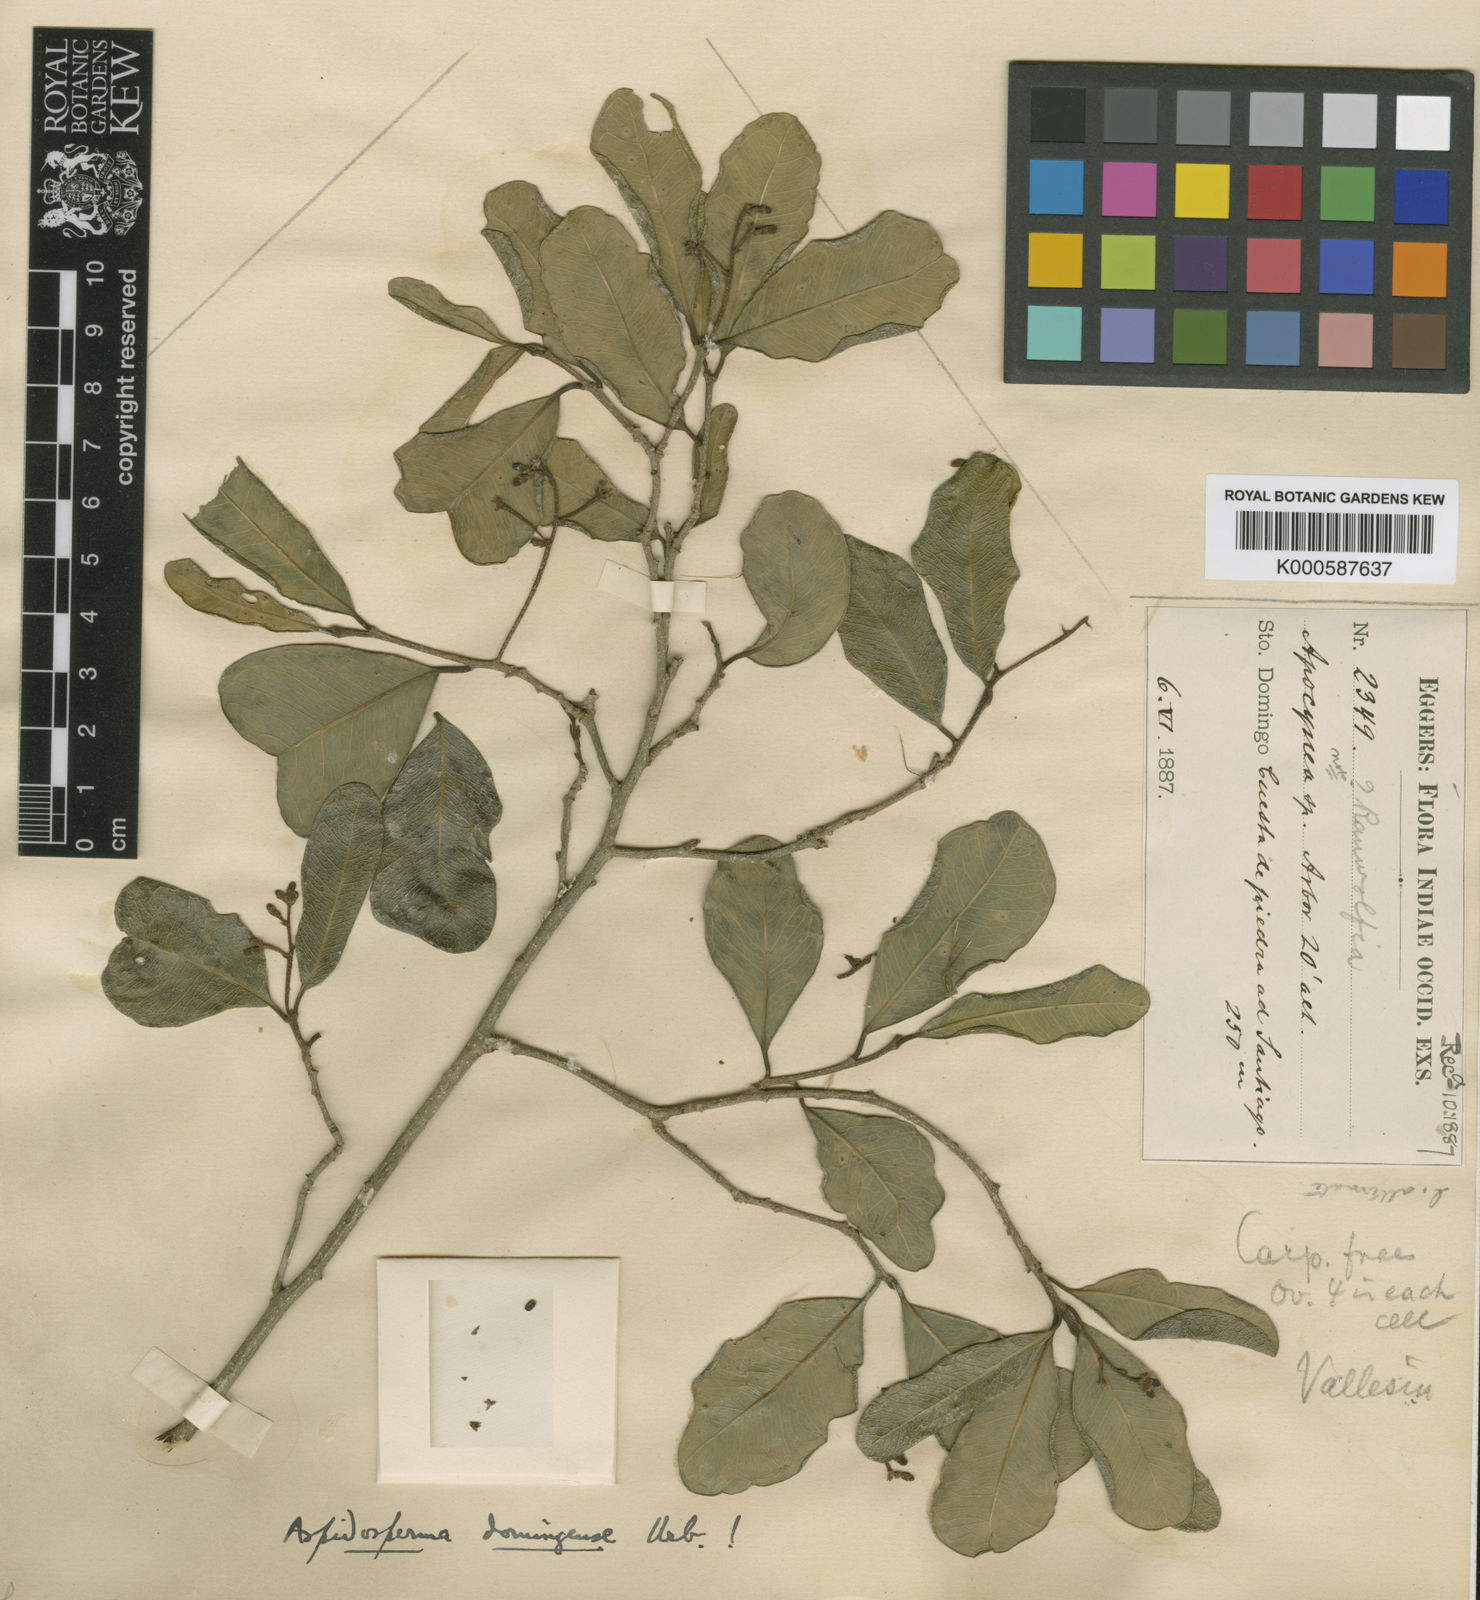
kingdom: Plantae
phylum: Tracheophyta
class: Magnoliopsida
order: Gentianales
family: Apocynaceae
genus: Aspidosperma
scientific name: Aspidosperma cuspa
